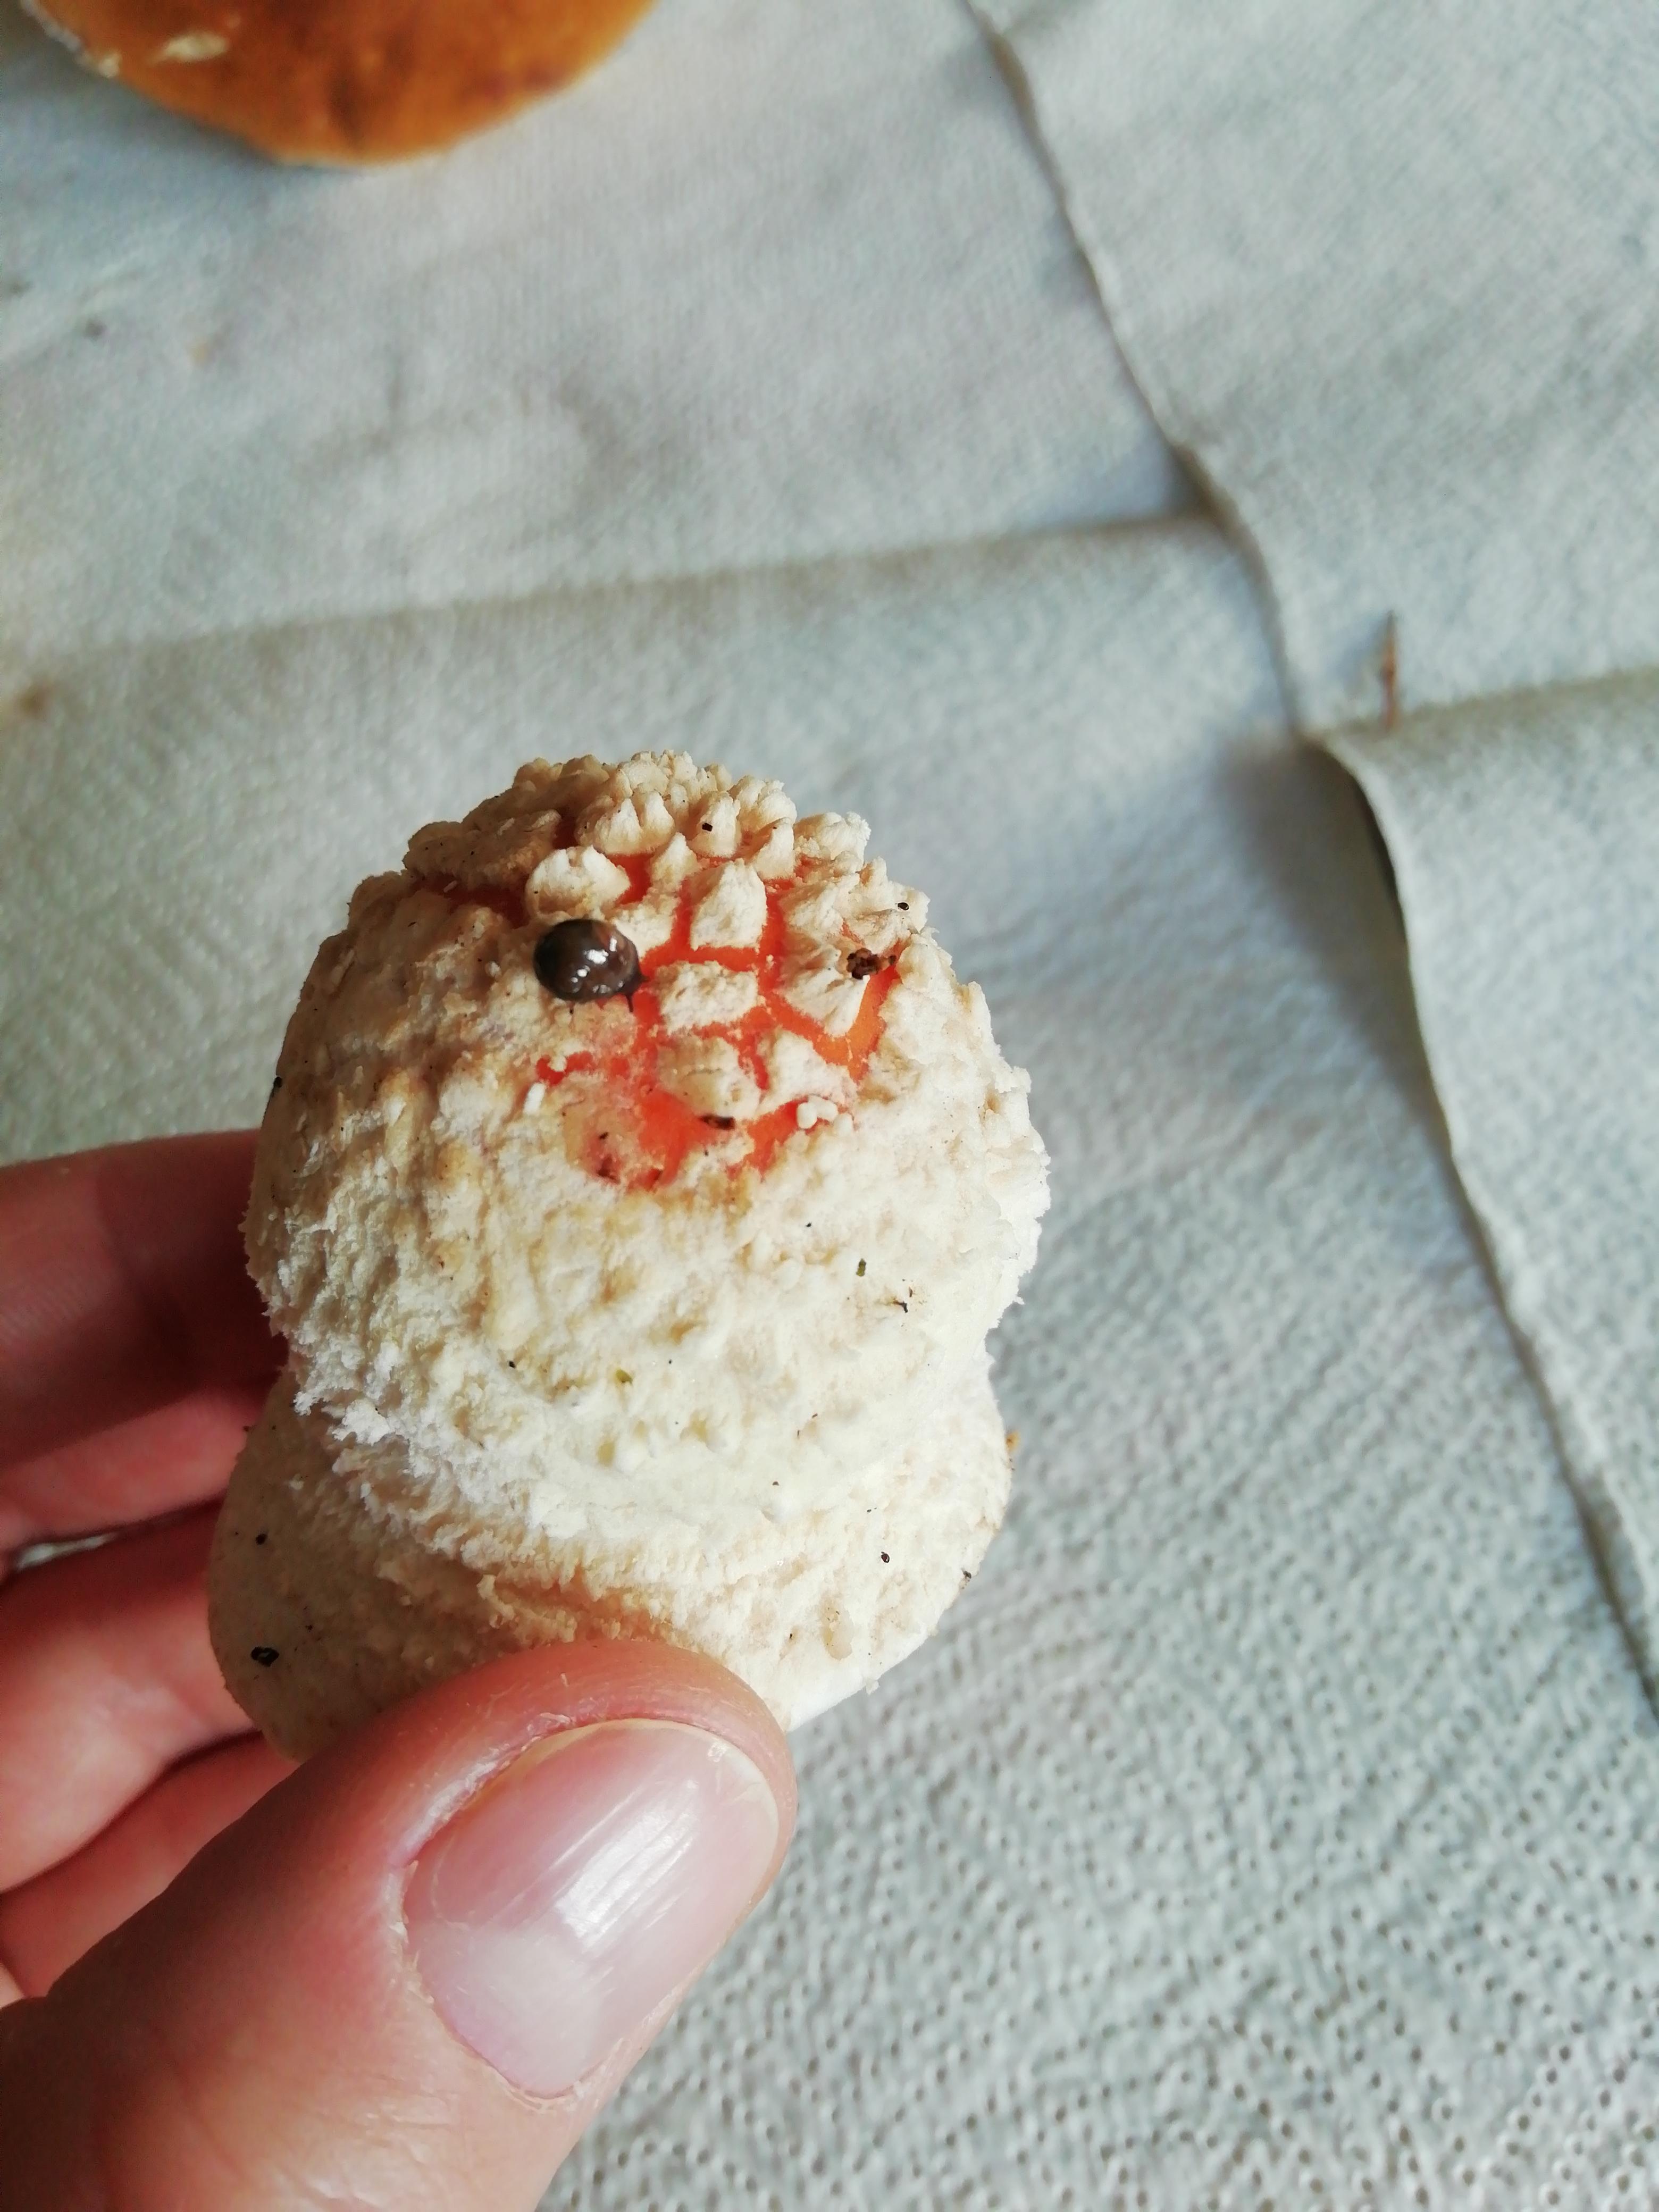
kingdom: Fungi
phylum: Basidiomycota
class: Agaricomycetes
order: Agaricales
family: Amanitaceae
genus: Amanita
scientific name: Amanita muscaria
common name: rød fluesvamp
